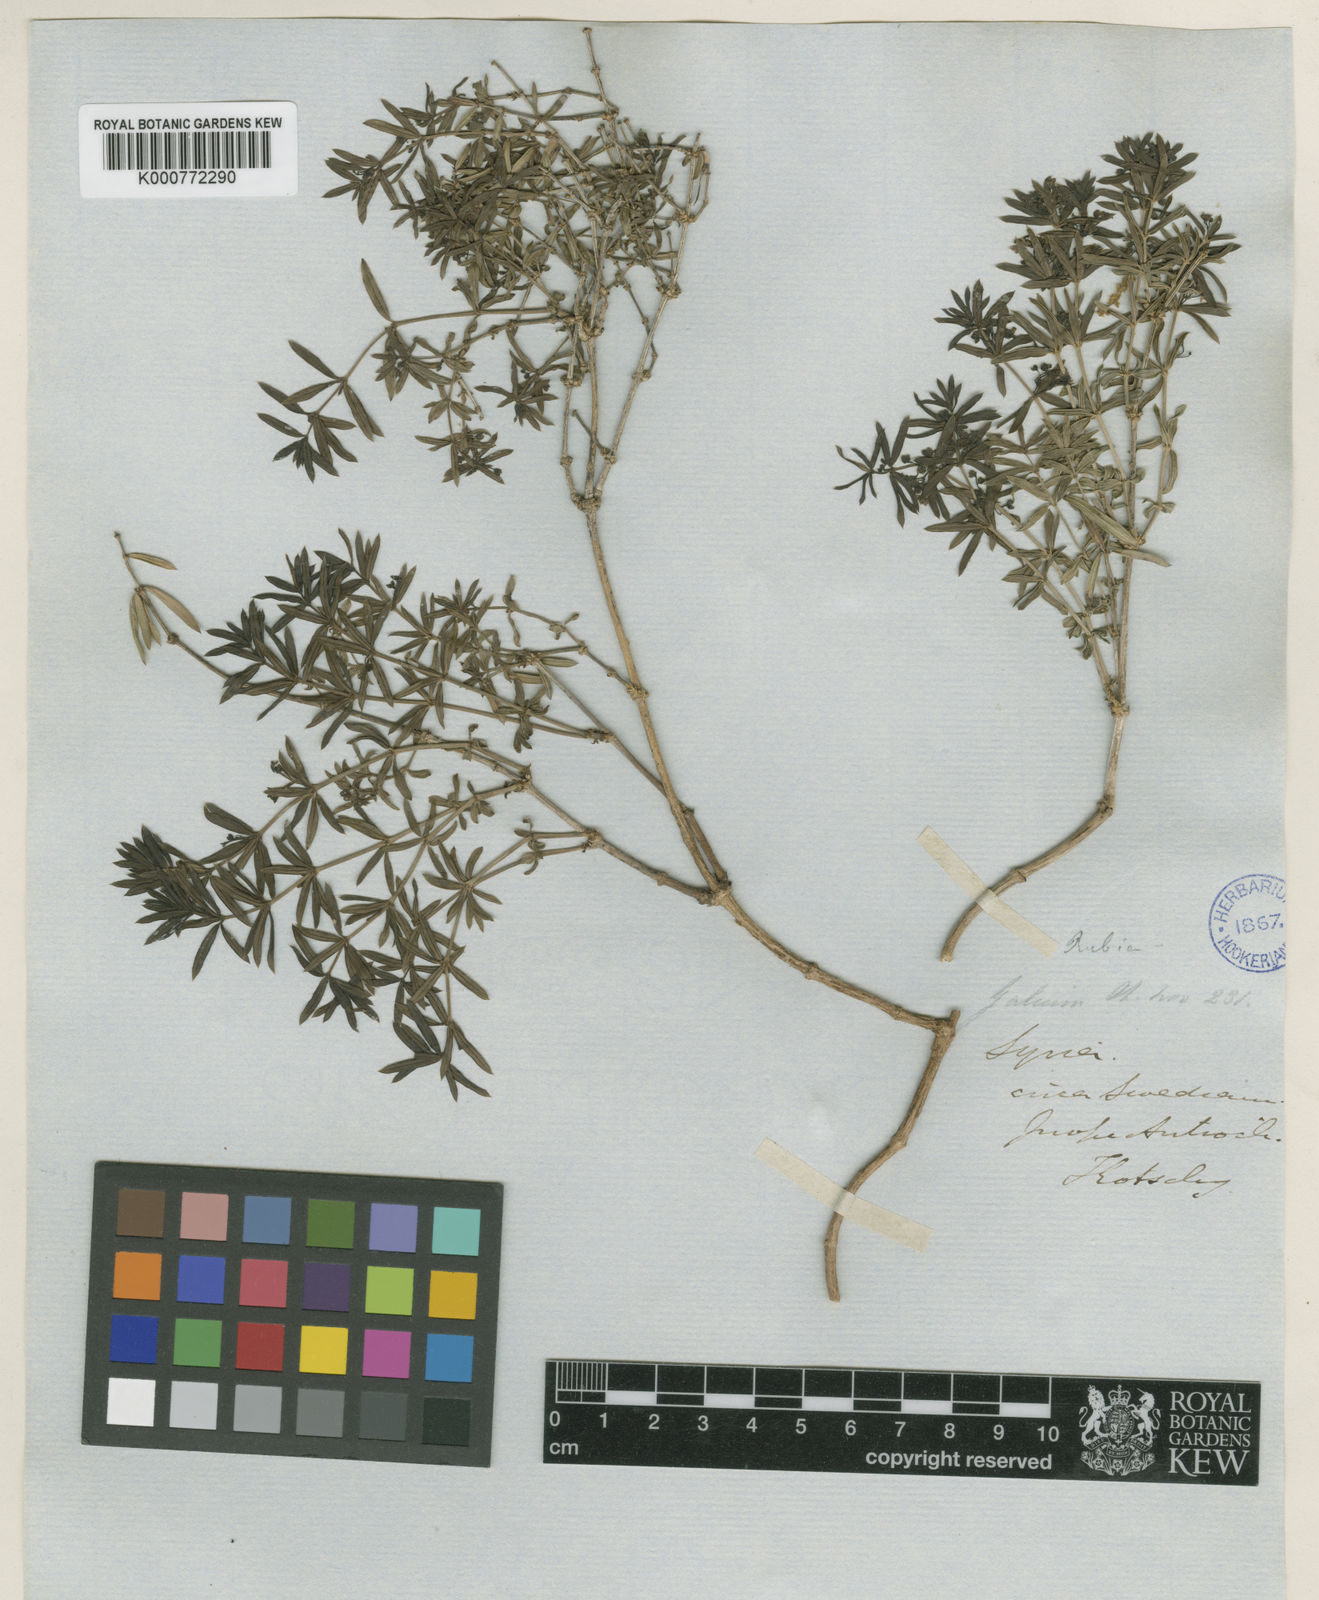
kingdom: Plantae
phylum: Tracheophyta
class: Magnoliopsida
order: Gentianales
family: Rubiaceae
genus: Rubia
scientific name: Rubia tenuifolia
